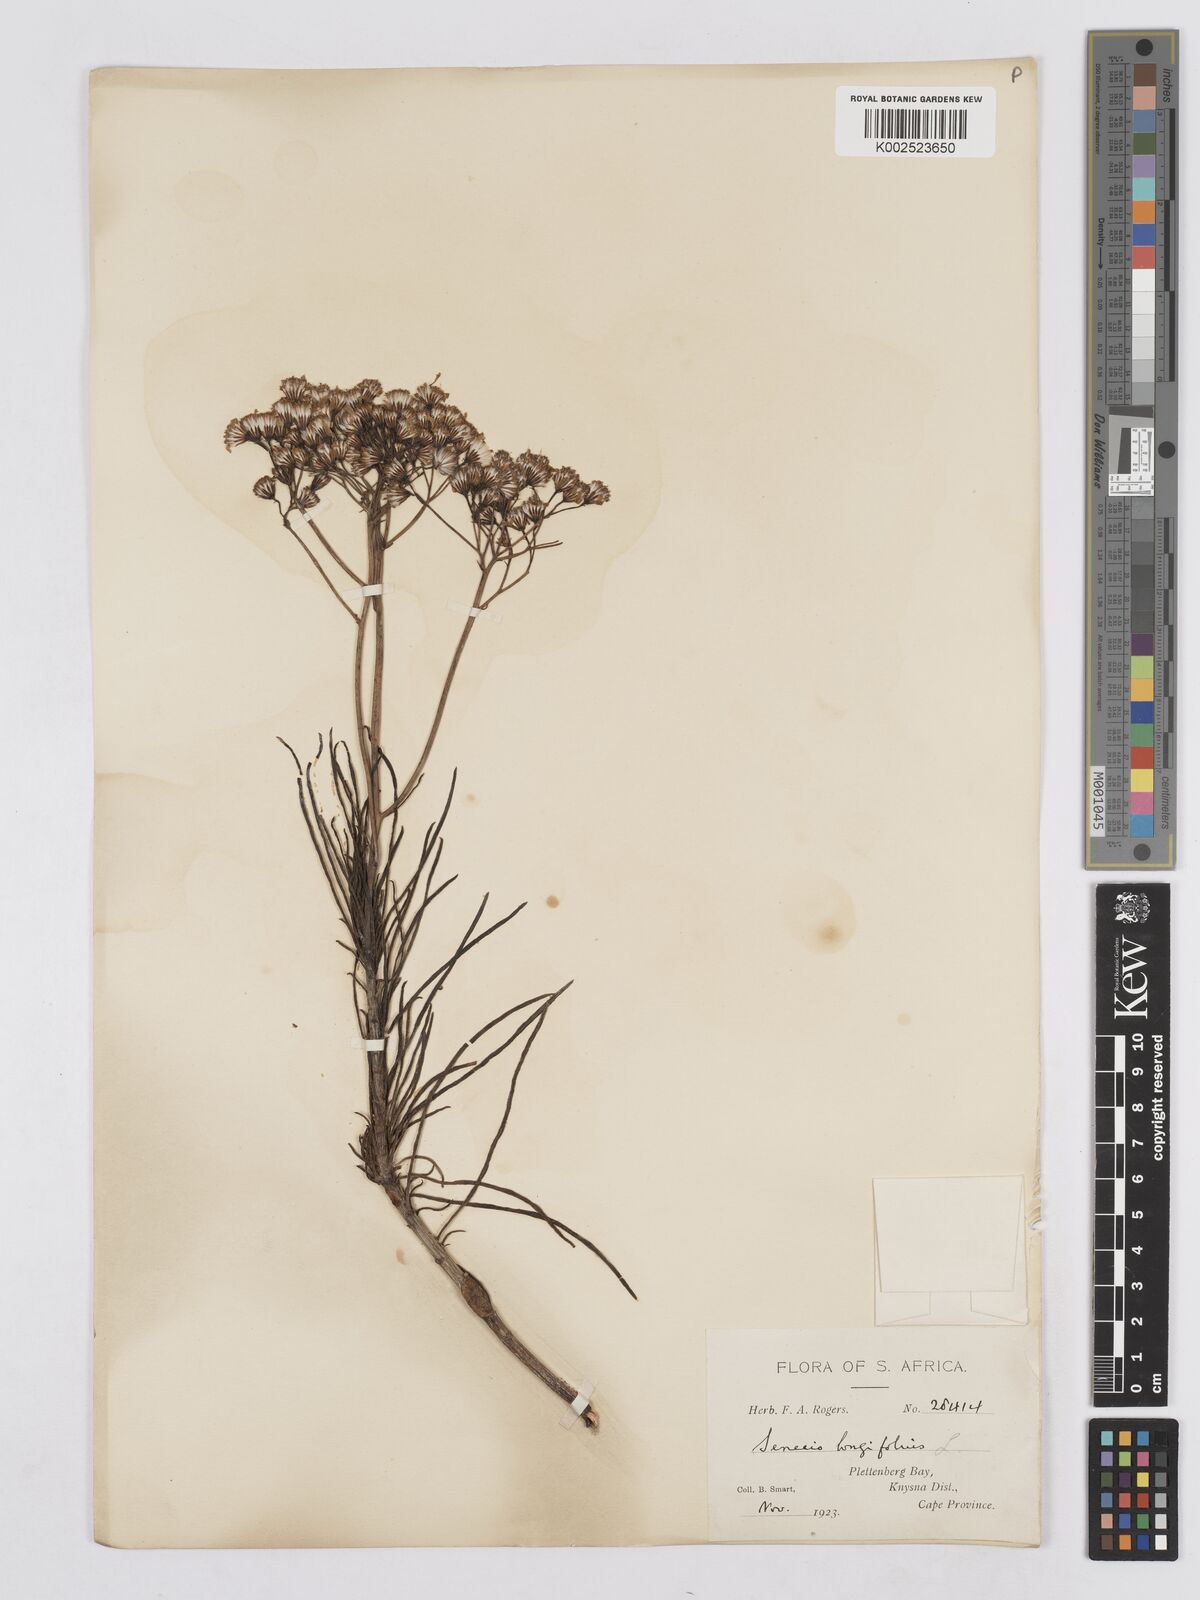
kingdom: Plantae
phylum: Tracheophyta
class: Magnoliopsida
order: Asterales
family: Asteraceae
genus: Senecio
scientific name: Senecio linifolius
